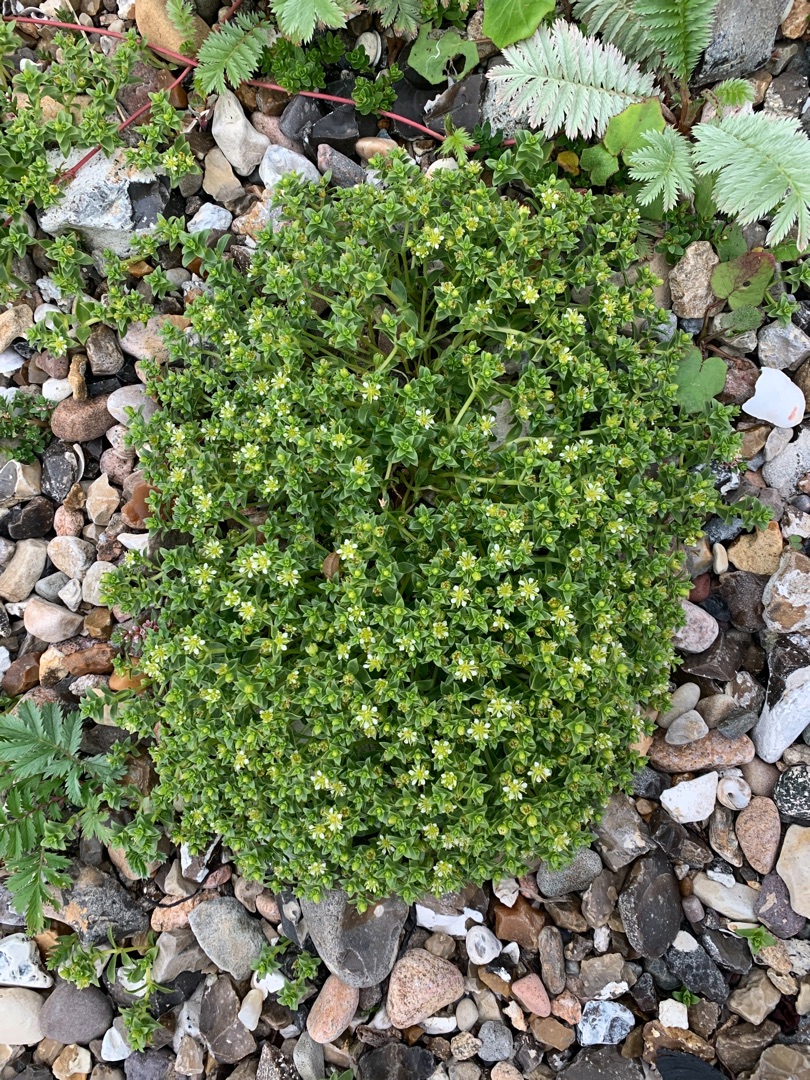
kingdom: Plantae
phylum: Tracheophyta
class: Magnoliopsida
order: Caryophyllales
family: Caryophyllaceae
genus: Honckenya
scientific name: Honckenya peploides
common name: Strandarve
